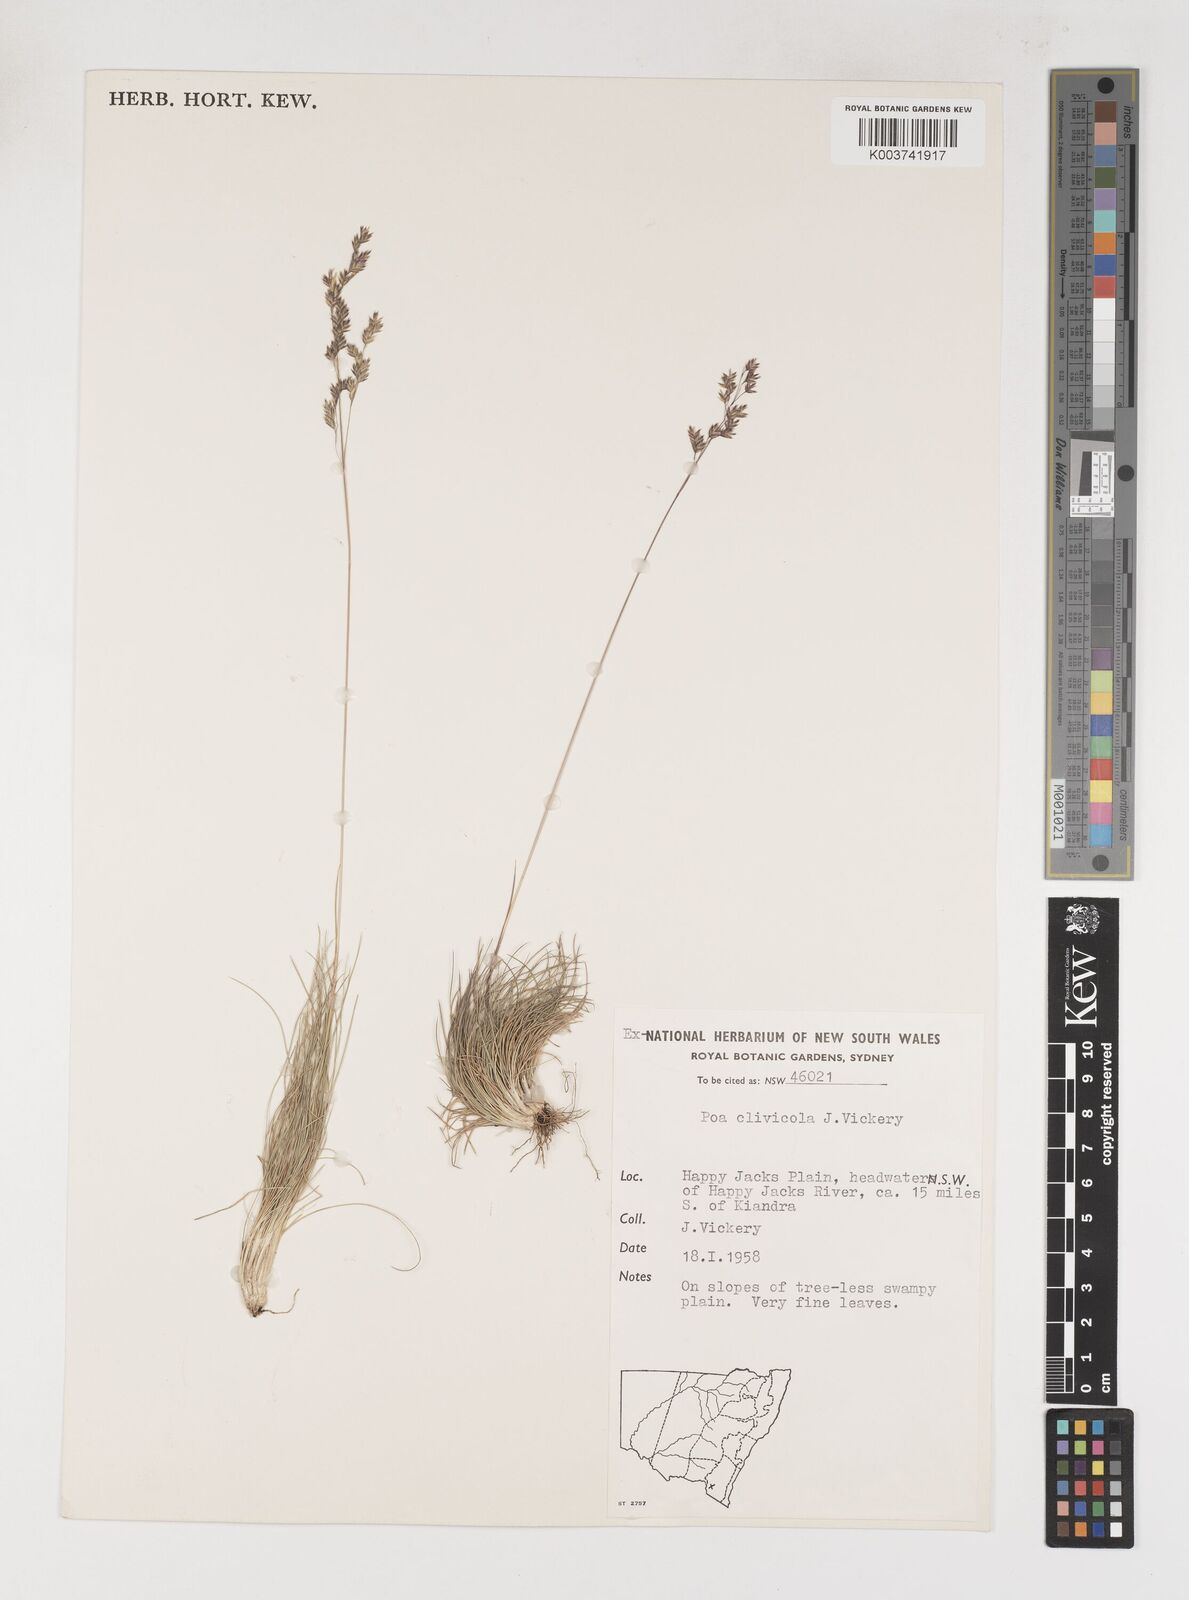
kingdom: Plantae
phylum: Tracheophyta
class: Liliopsida
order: Poales
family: Poaceae
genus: Poa
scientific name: Poa clivicola
